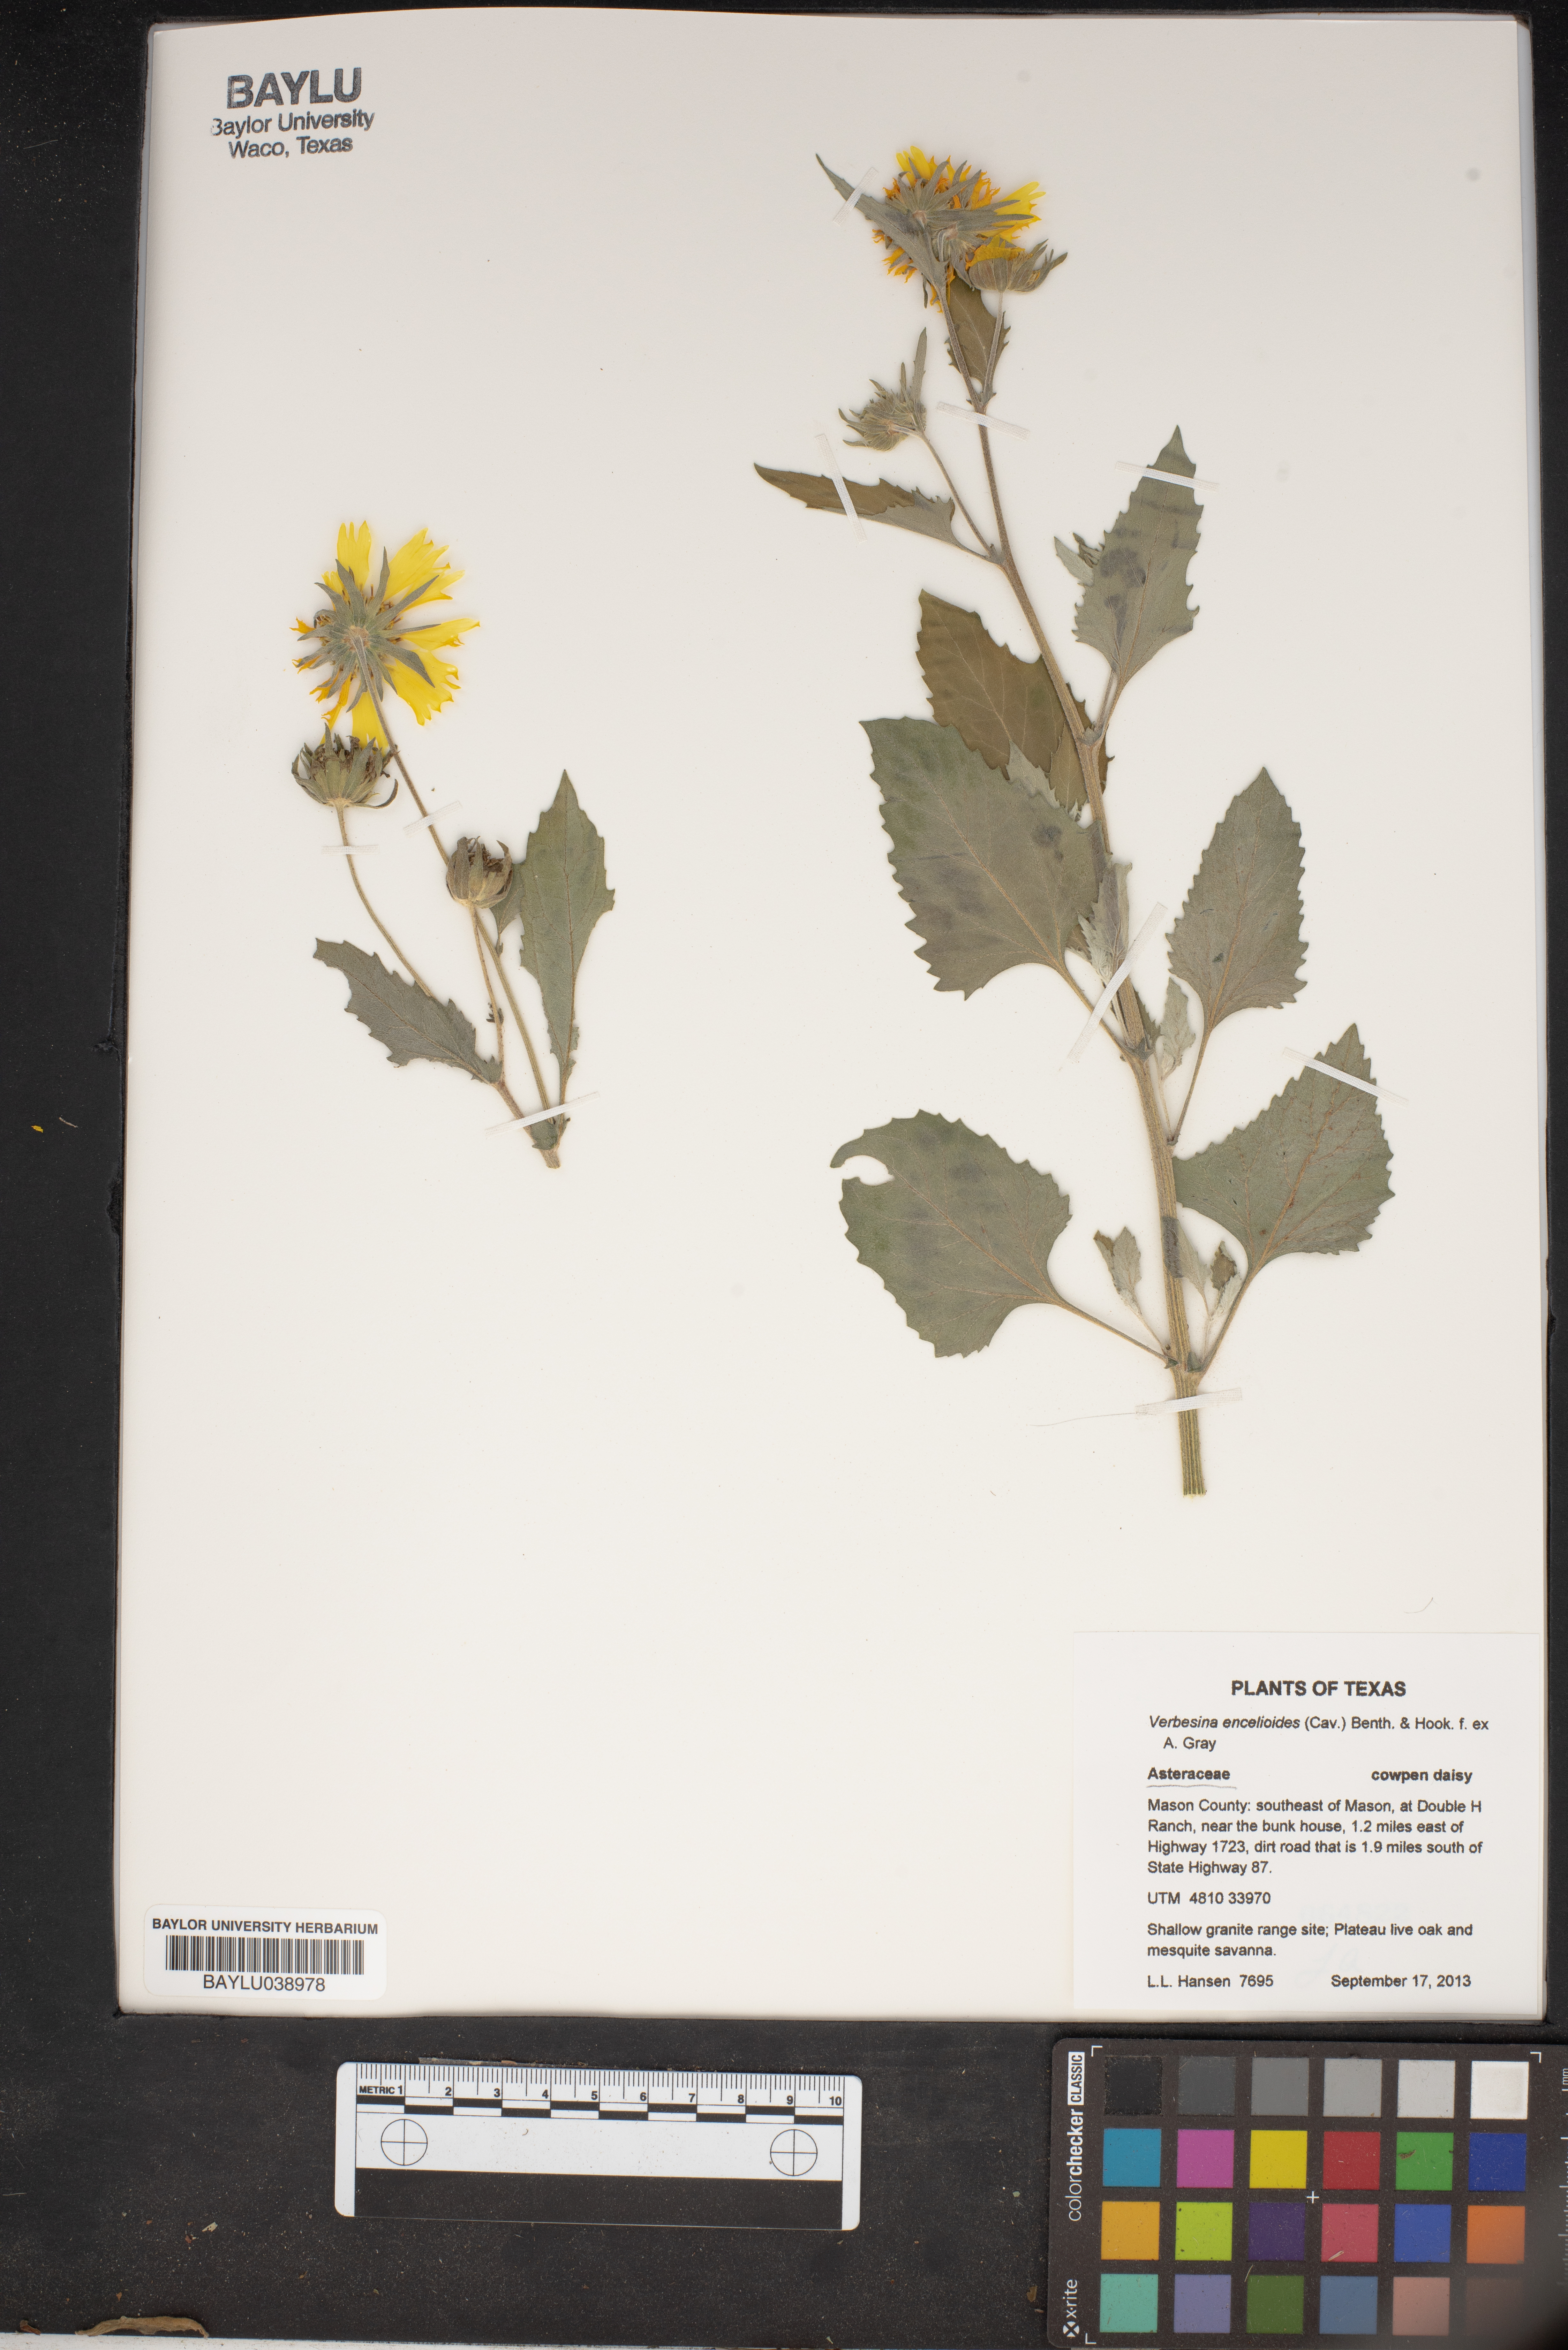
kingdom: Plantae
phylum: Tracheophyta
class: Magnoliopsida
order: Asterales
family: Asteraceae
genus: Verbesina
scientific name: Verbesina encelioides
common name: Golden crownbeard
